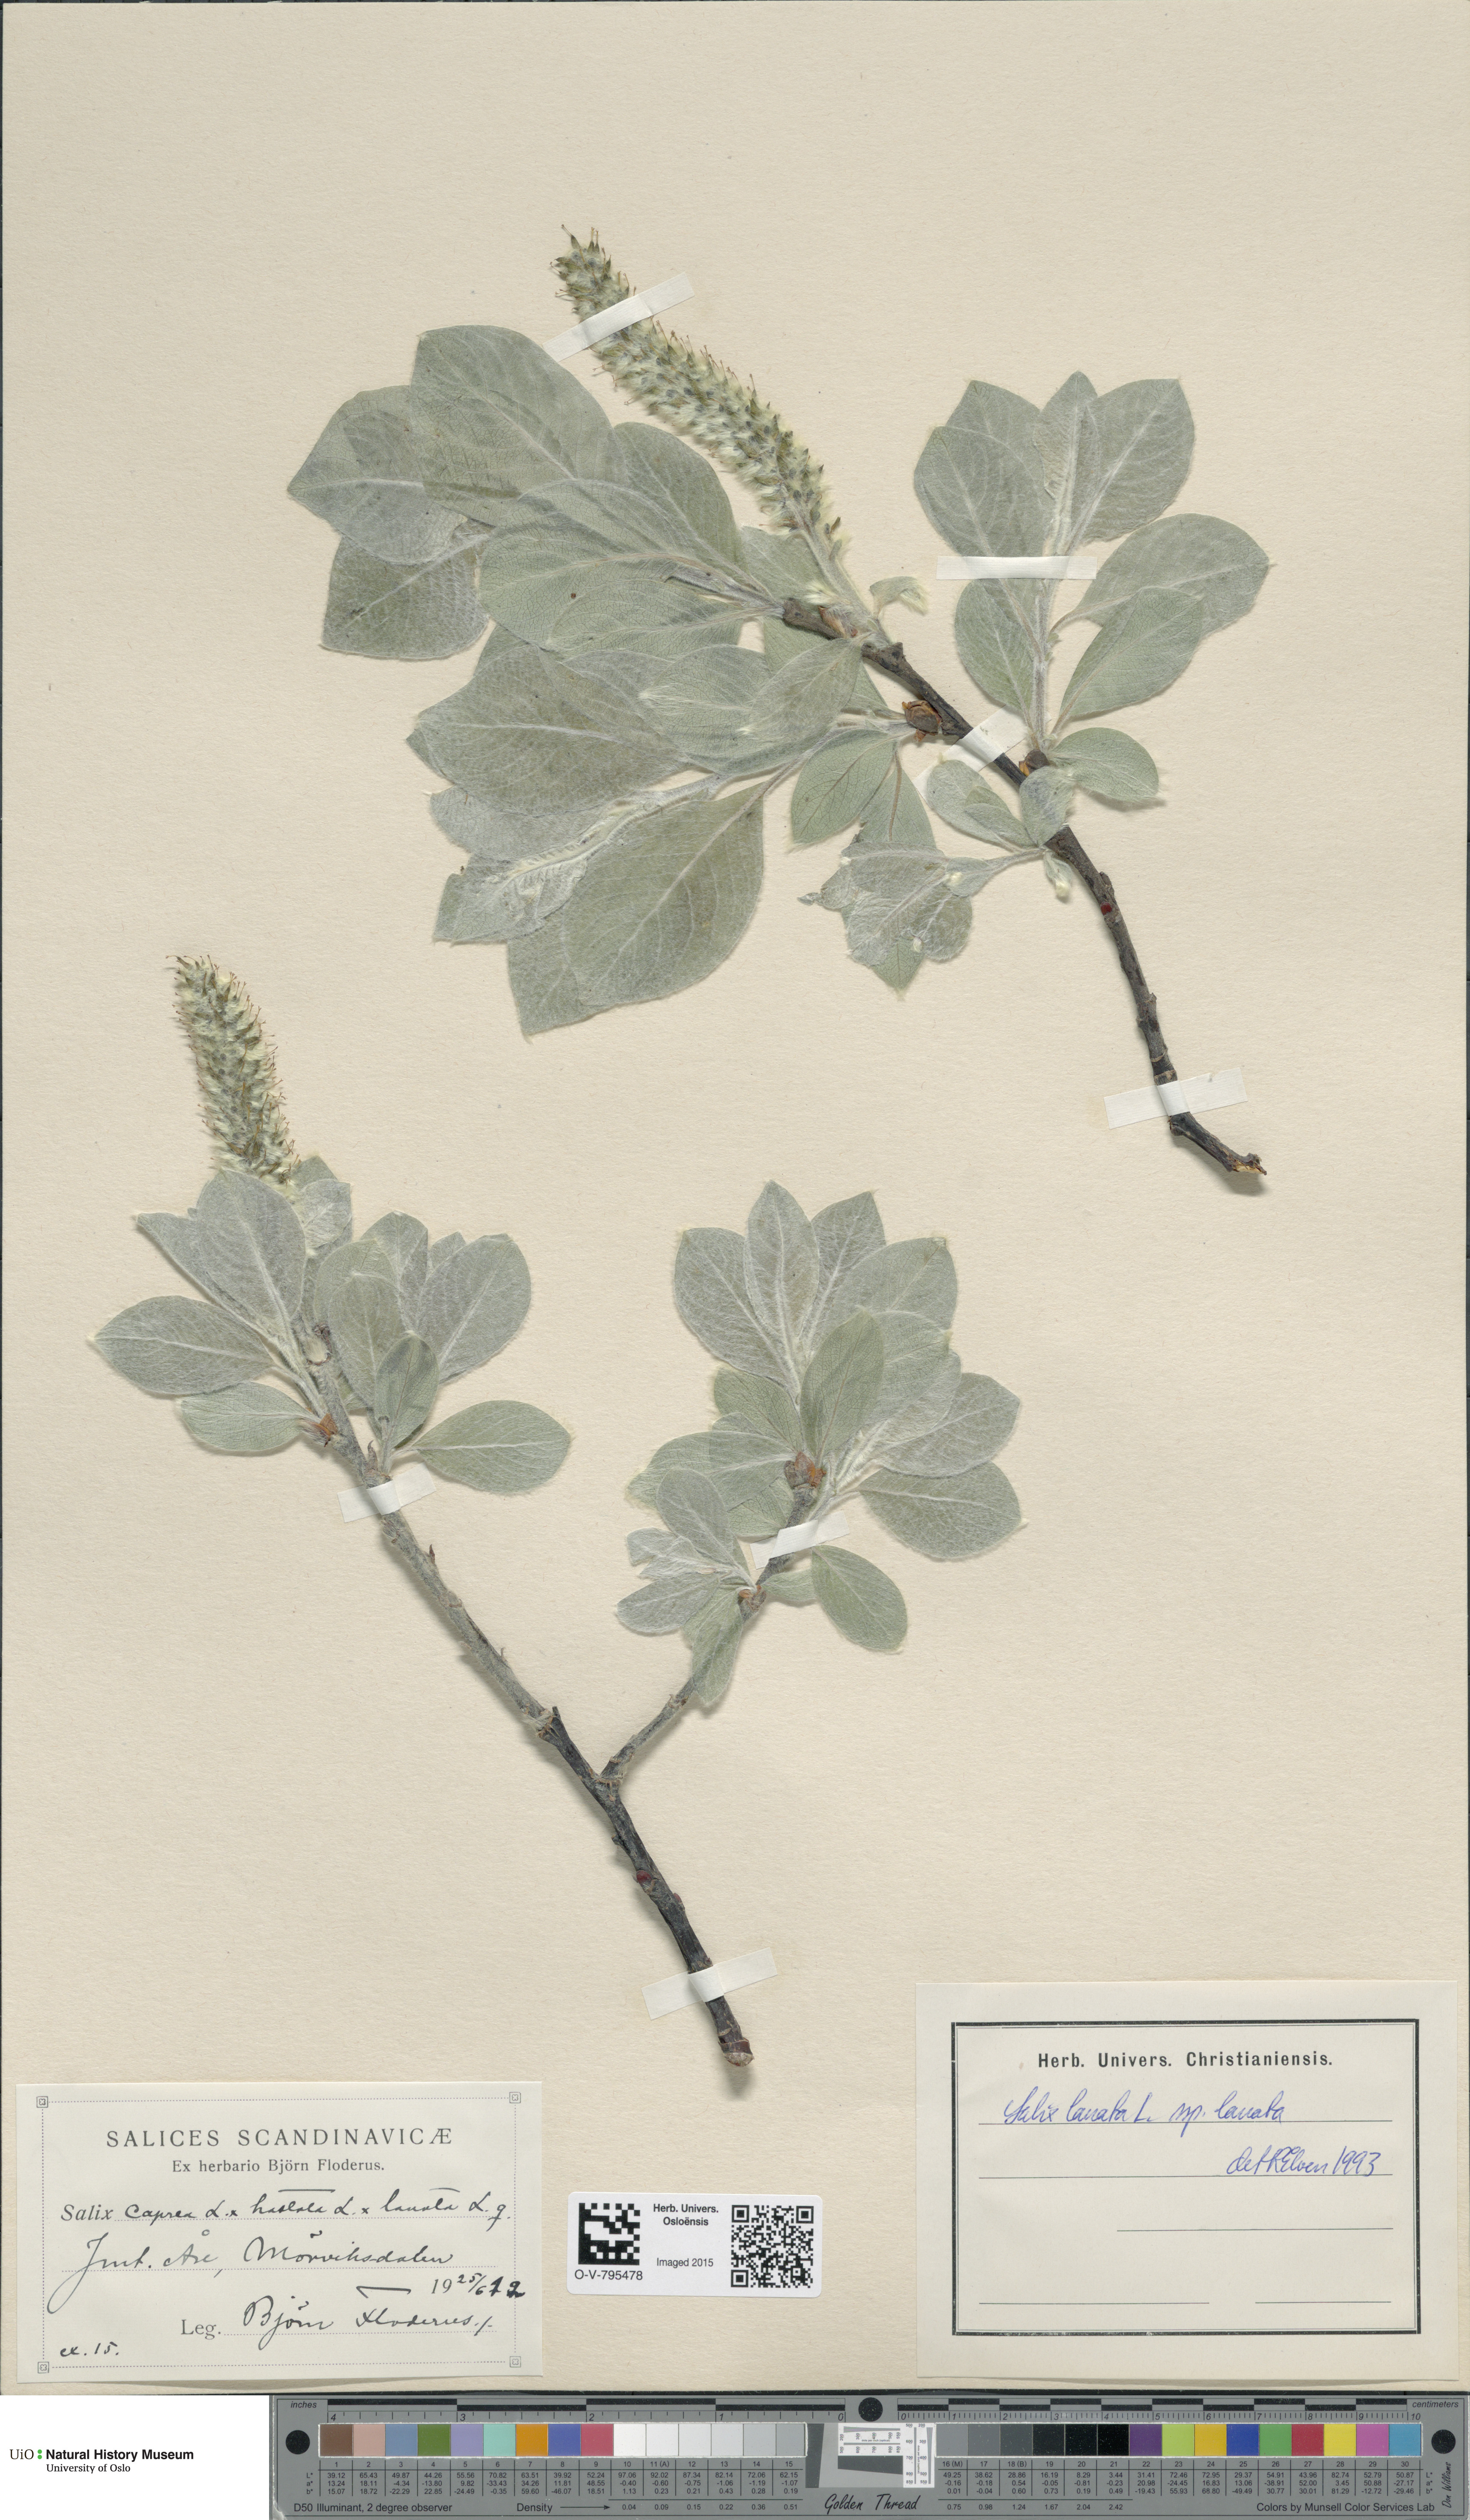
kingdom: Plantae
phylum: Tracheophyta
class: Magnoliopsida
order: Malpighiales
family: Salicaceae
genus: Salix
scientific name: Salix lanata
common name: Woolly willow
